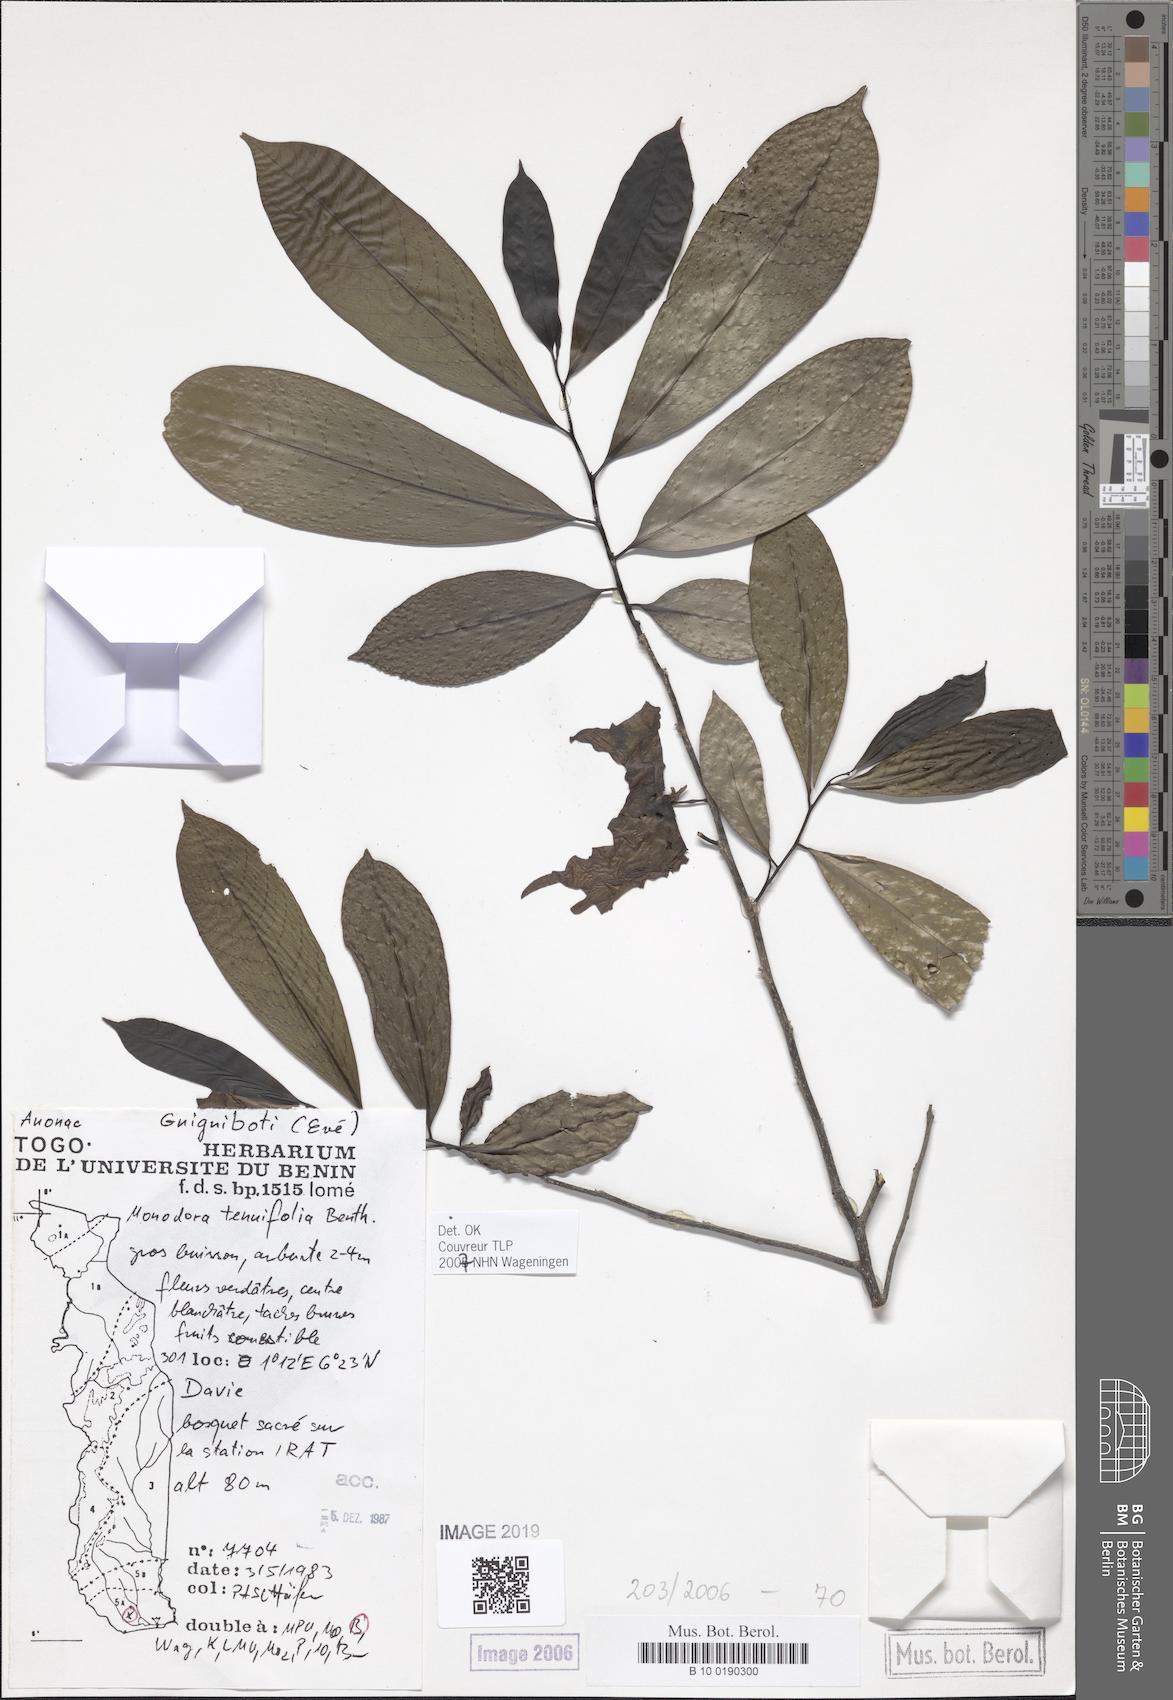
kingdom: Plantae
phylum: Tracheophyta
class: Magnoliopsida
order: Magnoliales
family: Annonaceae
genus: Monodora
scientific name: Monodora tenuifolia
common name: Orchidtree
